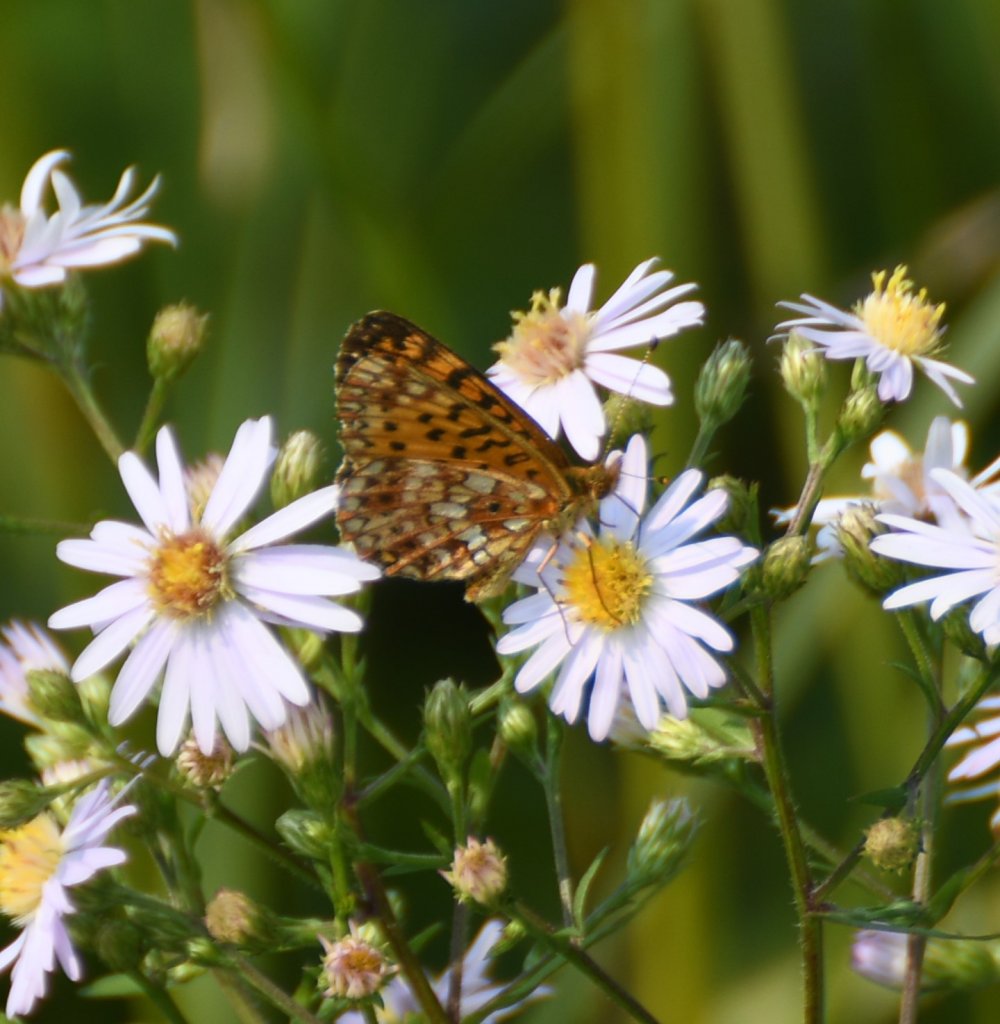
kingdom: Animalia
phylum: Arthropoda
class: Insecta
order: Lepidoptera
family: Nymphalidae
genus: Boloria
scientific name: Boloria selene
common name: Silver-bordered Fritillary
